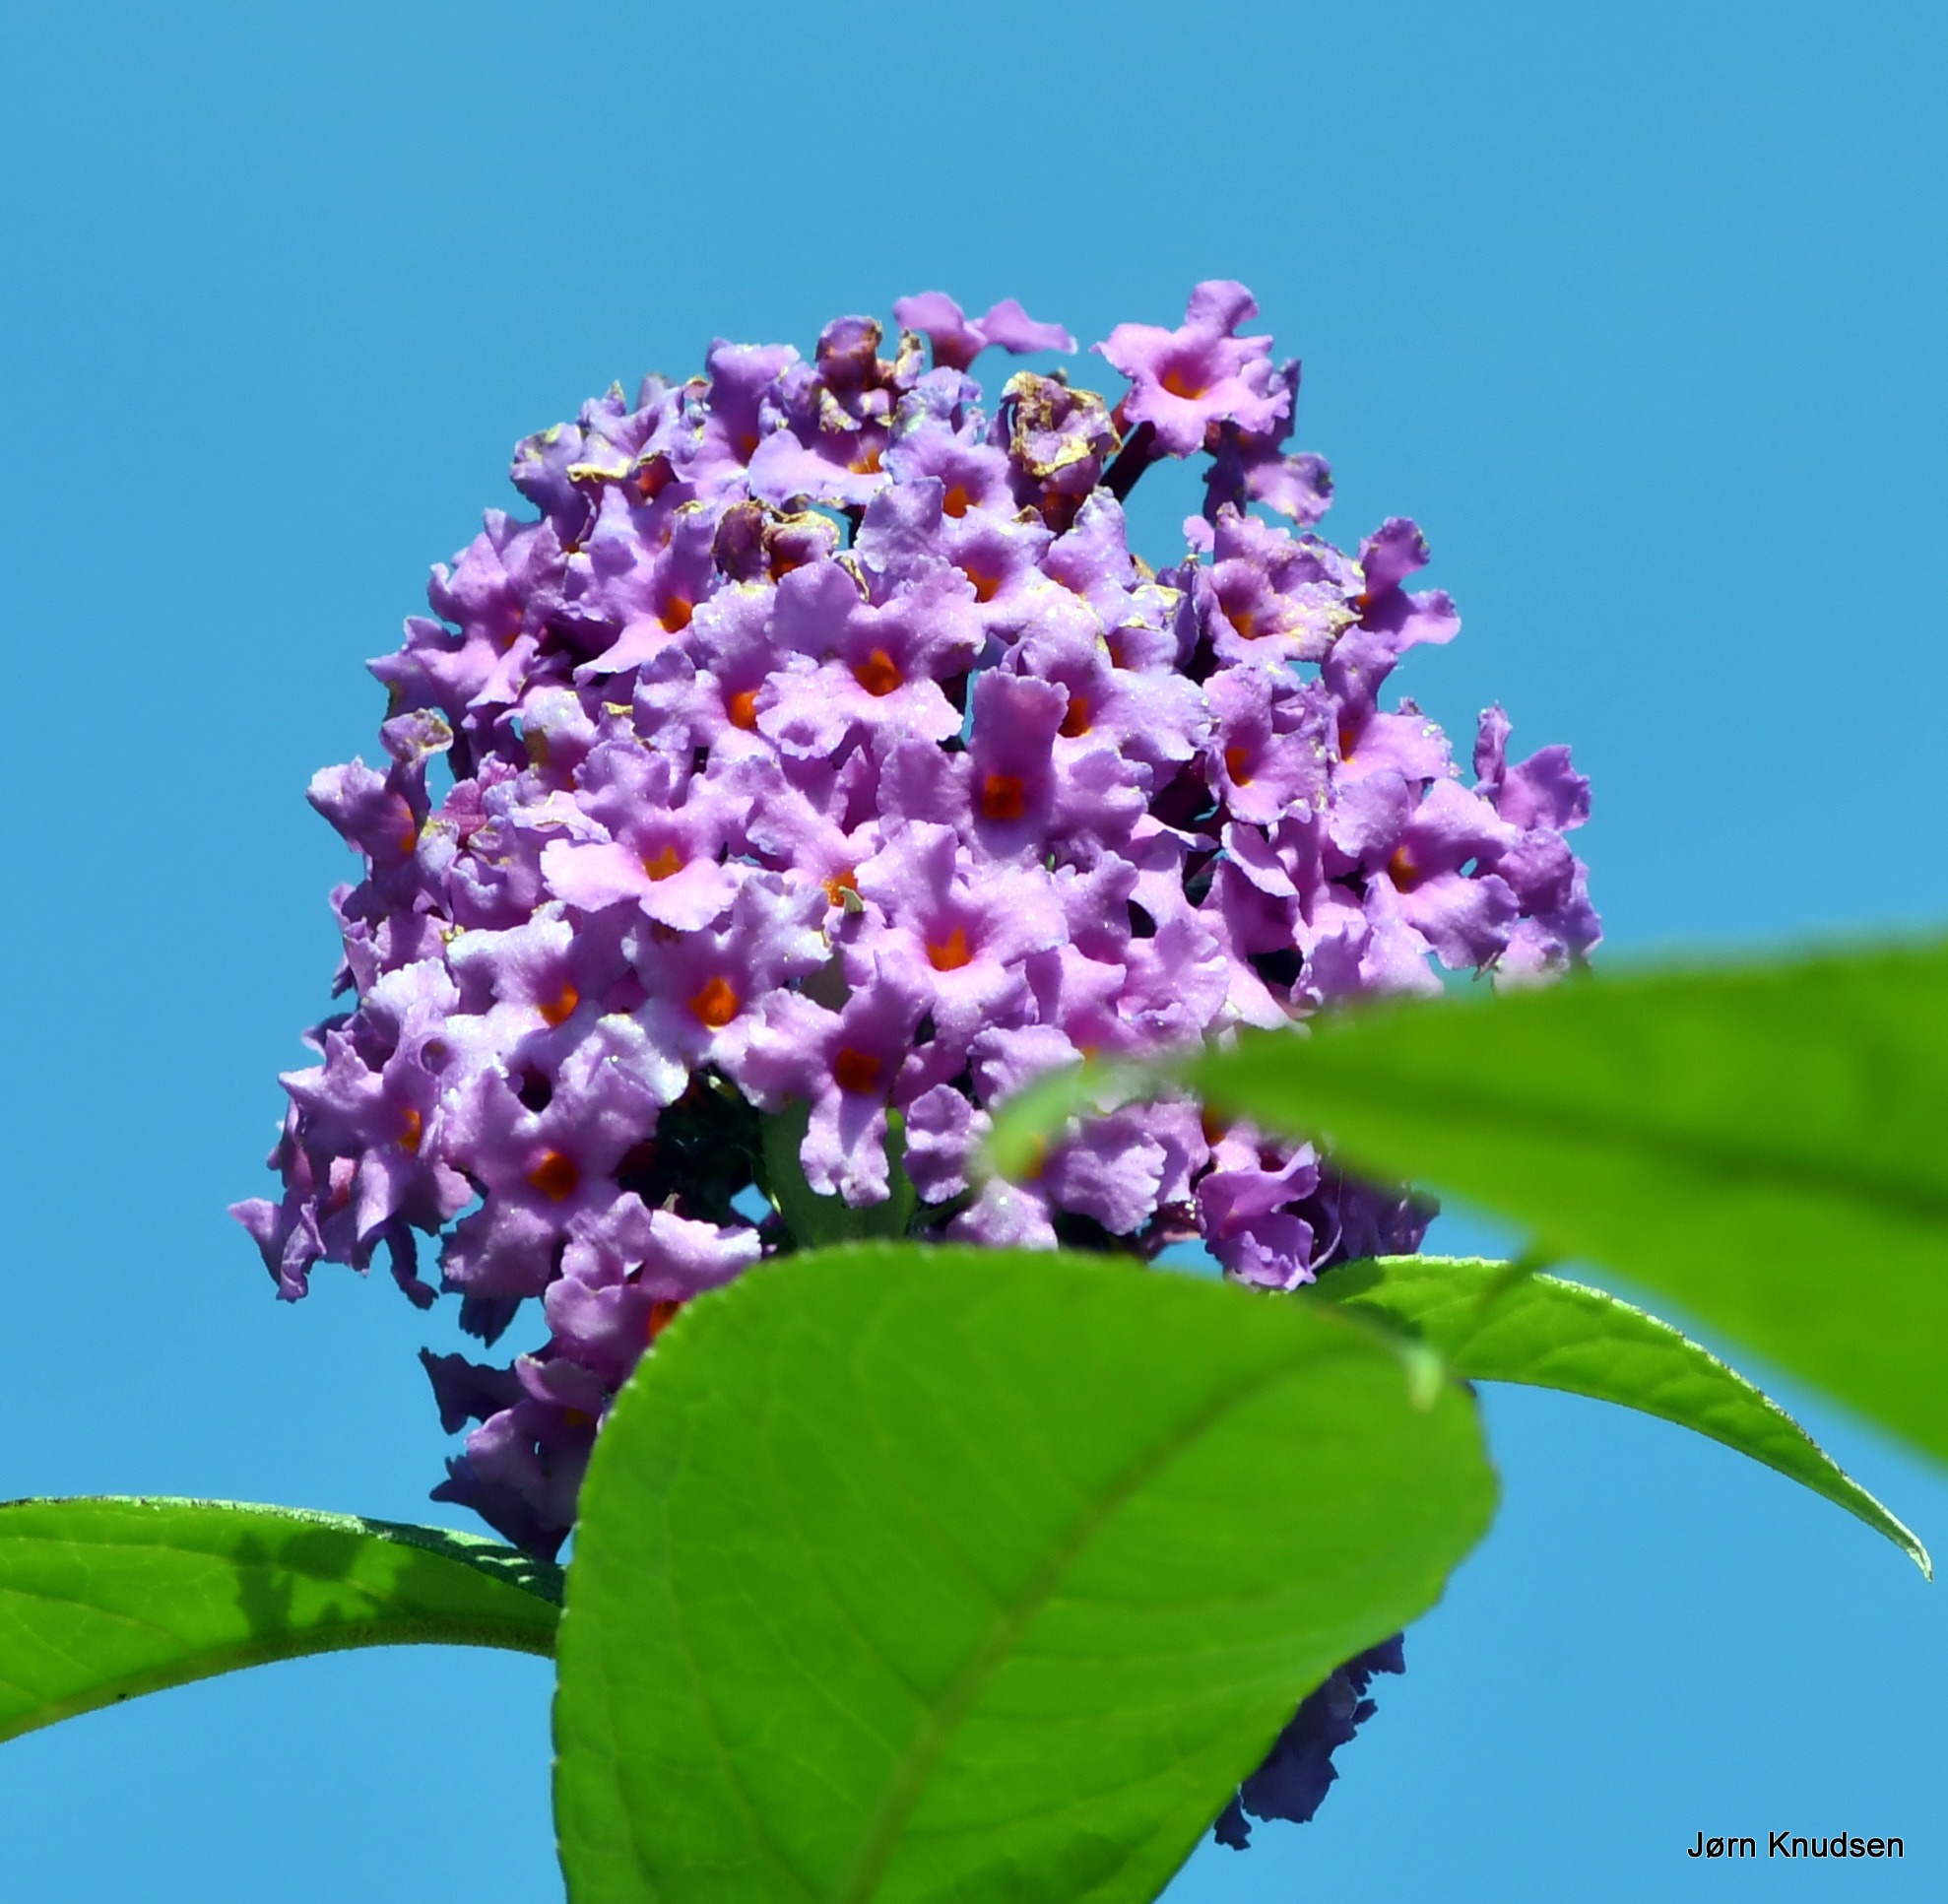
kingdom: Plantae
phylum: Tracheophyta
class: Magnoliopsida
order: Lamiales
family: Scrophulariaceae
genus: Buddleja
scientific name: Buddleja davidii
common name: Sommerfuglebusk
